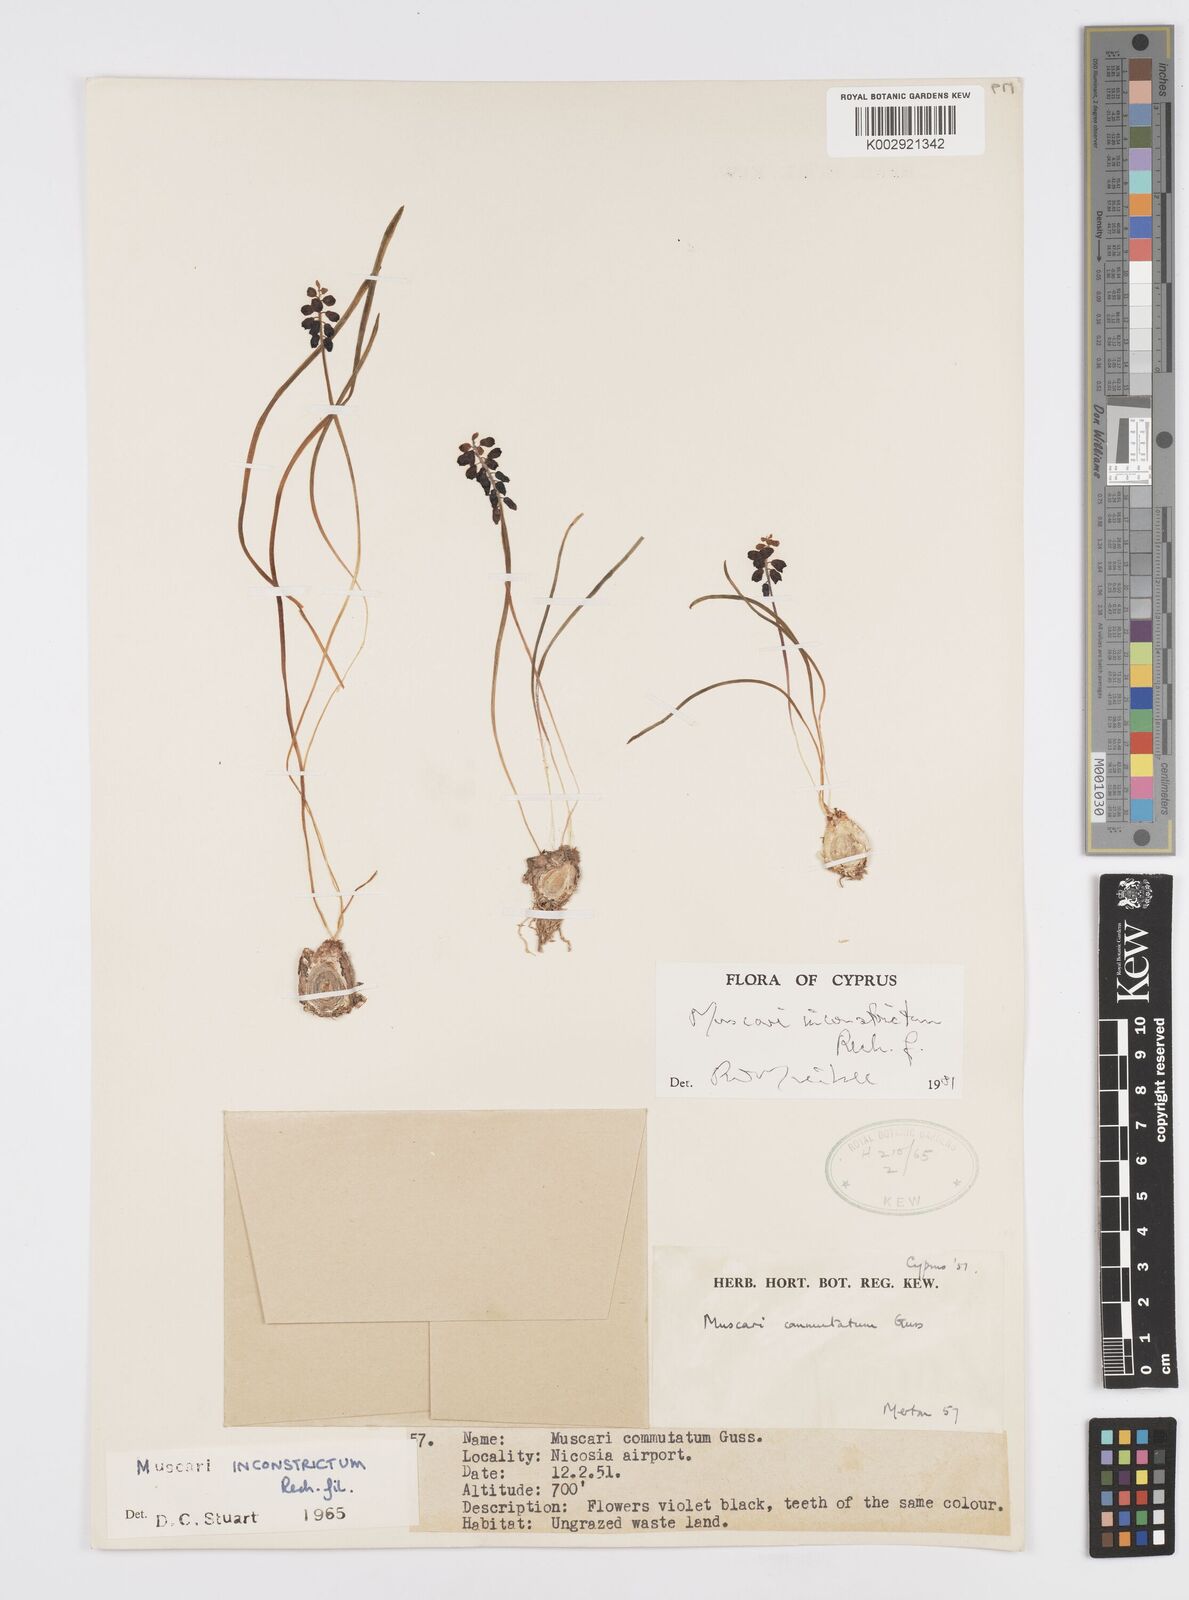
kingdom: Plantae
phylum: Tracheophyta
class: Liliopsida
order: Asparagales
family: Asparagaceae
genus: Muscari
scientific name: Muscari inconstrictum
